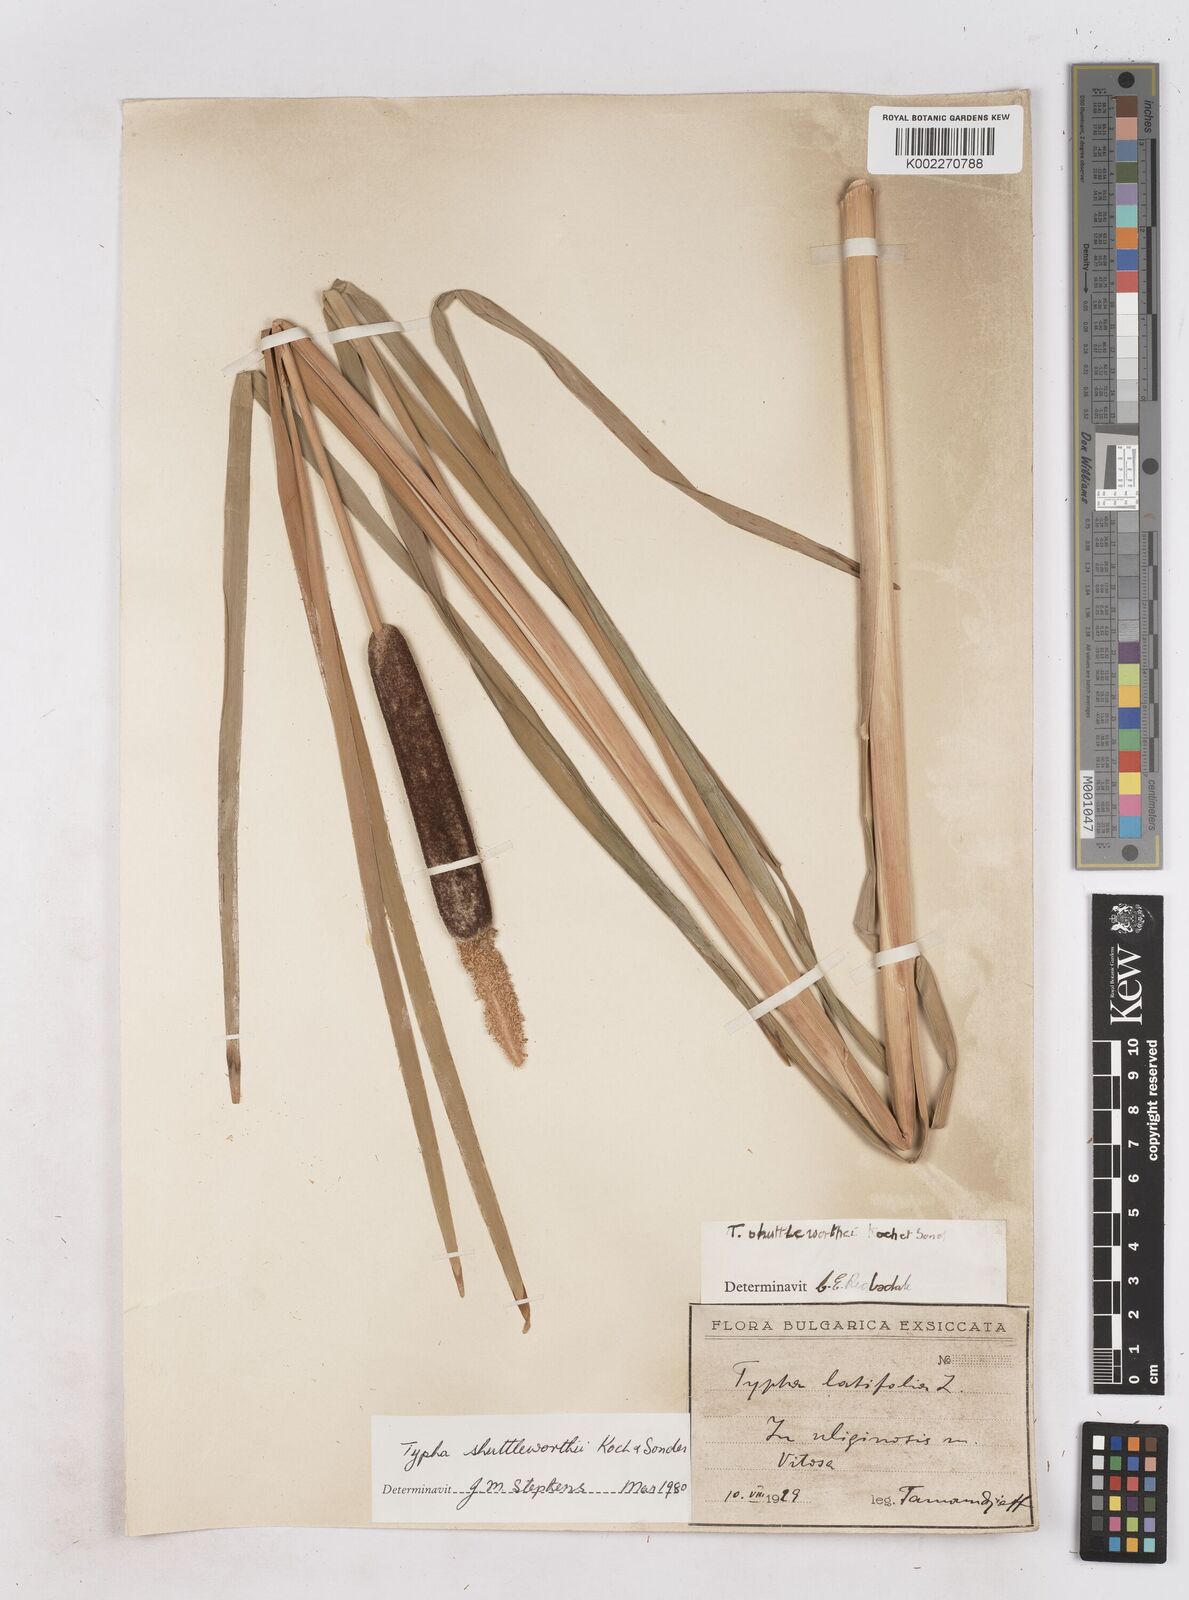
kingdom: Plantae
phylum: Tracheophyta
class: Liliopsida
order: Poales
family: Typhaceae
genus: Typha
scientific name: Typha shuttleworthii
